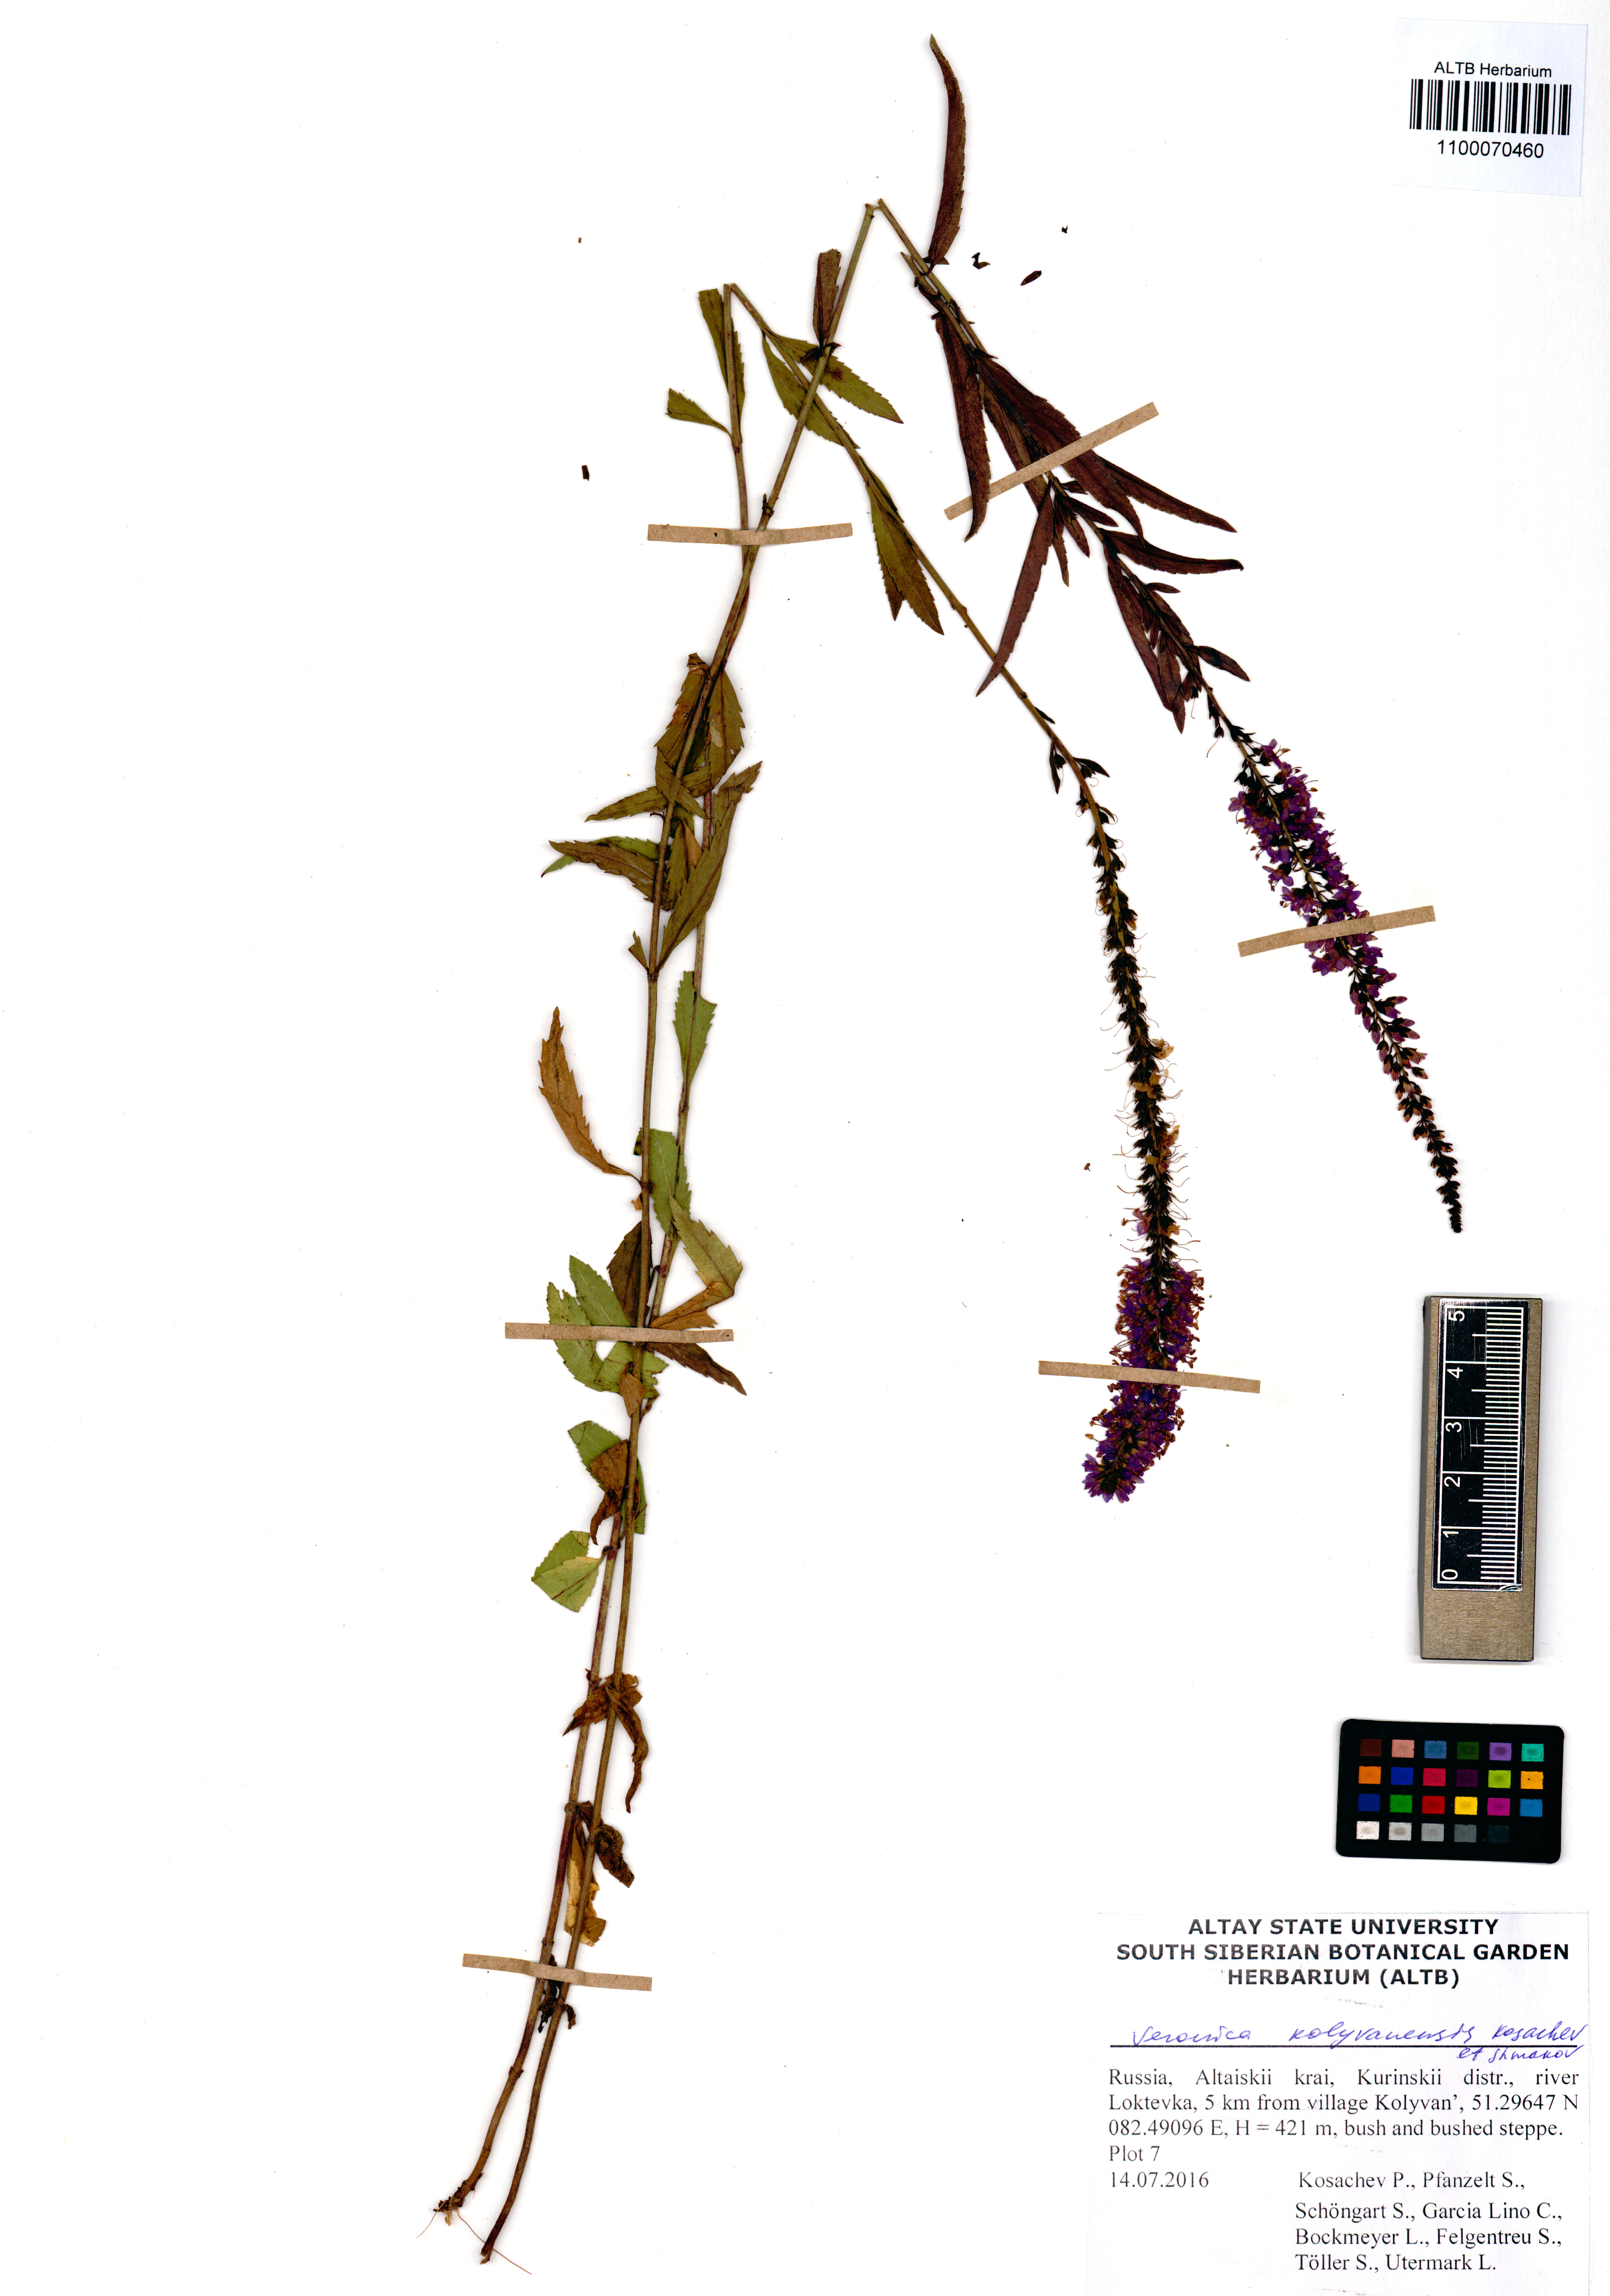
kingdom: Plantae
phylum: Tracheophyta
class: Magnoliopsida
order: Lamiales
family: Plantaginaceae
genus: Veronica
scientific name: Veronica kolyvanensis
